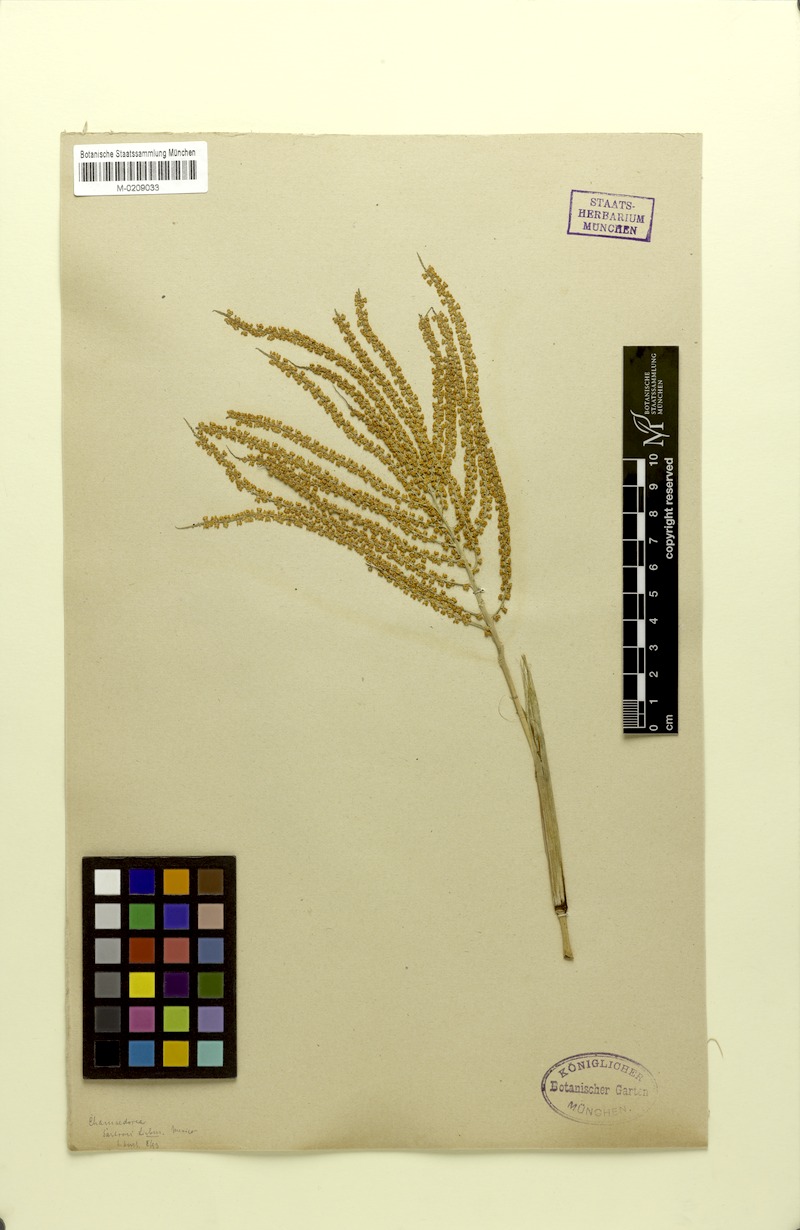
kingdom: Plantae
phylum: Tracheophyta
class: Liliopsida
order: Arecales
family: Arecaceae
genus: Chamaedorea
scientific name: Chamaedorea sartorii
